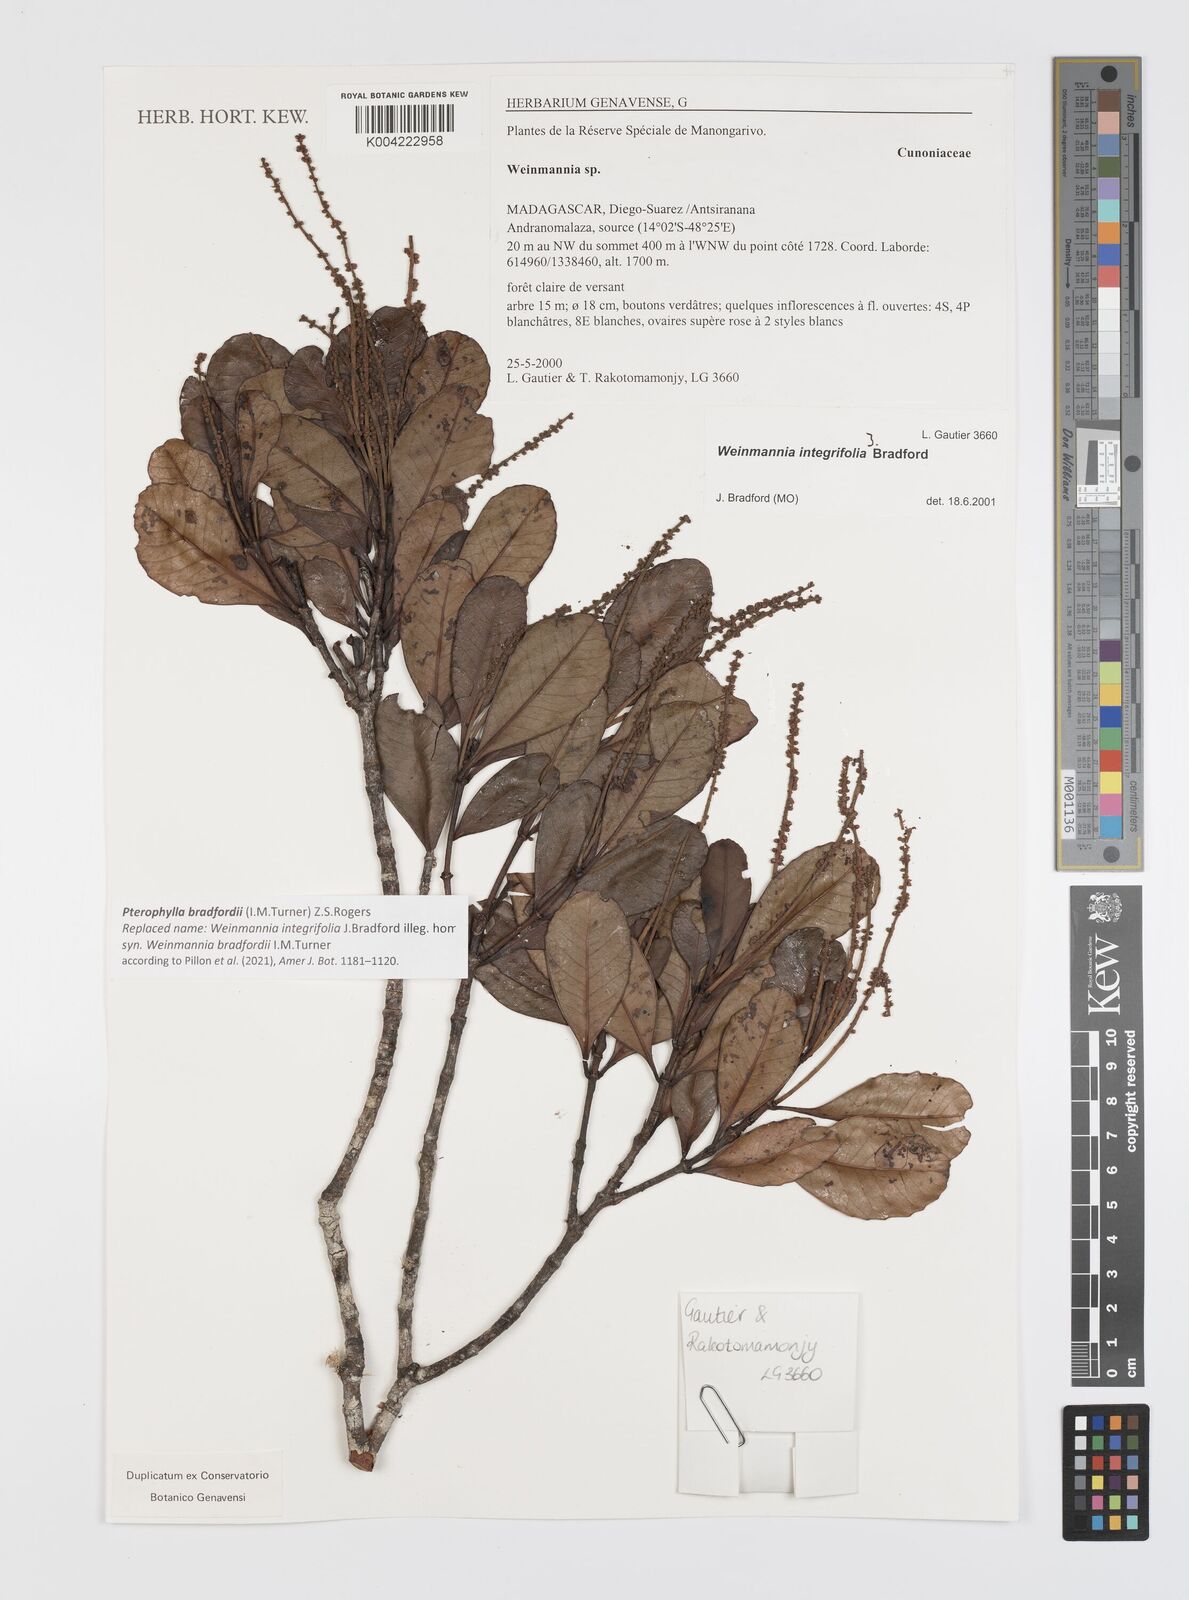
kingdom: Plantae
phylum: Tracheophyta
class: Magnoliopsida
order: Oxalidales
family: Cunoniaceae
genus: Pterophylla
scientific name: Pterophylla bradfordii
